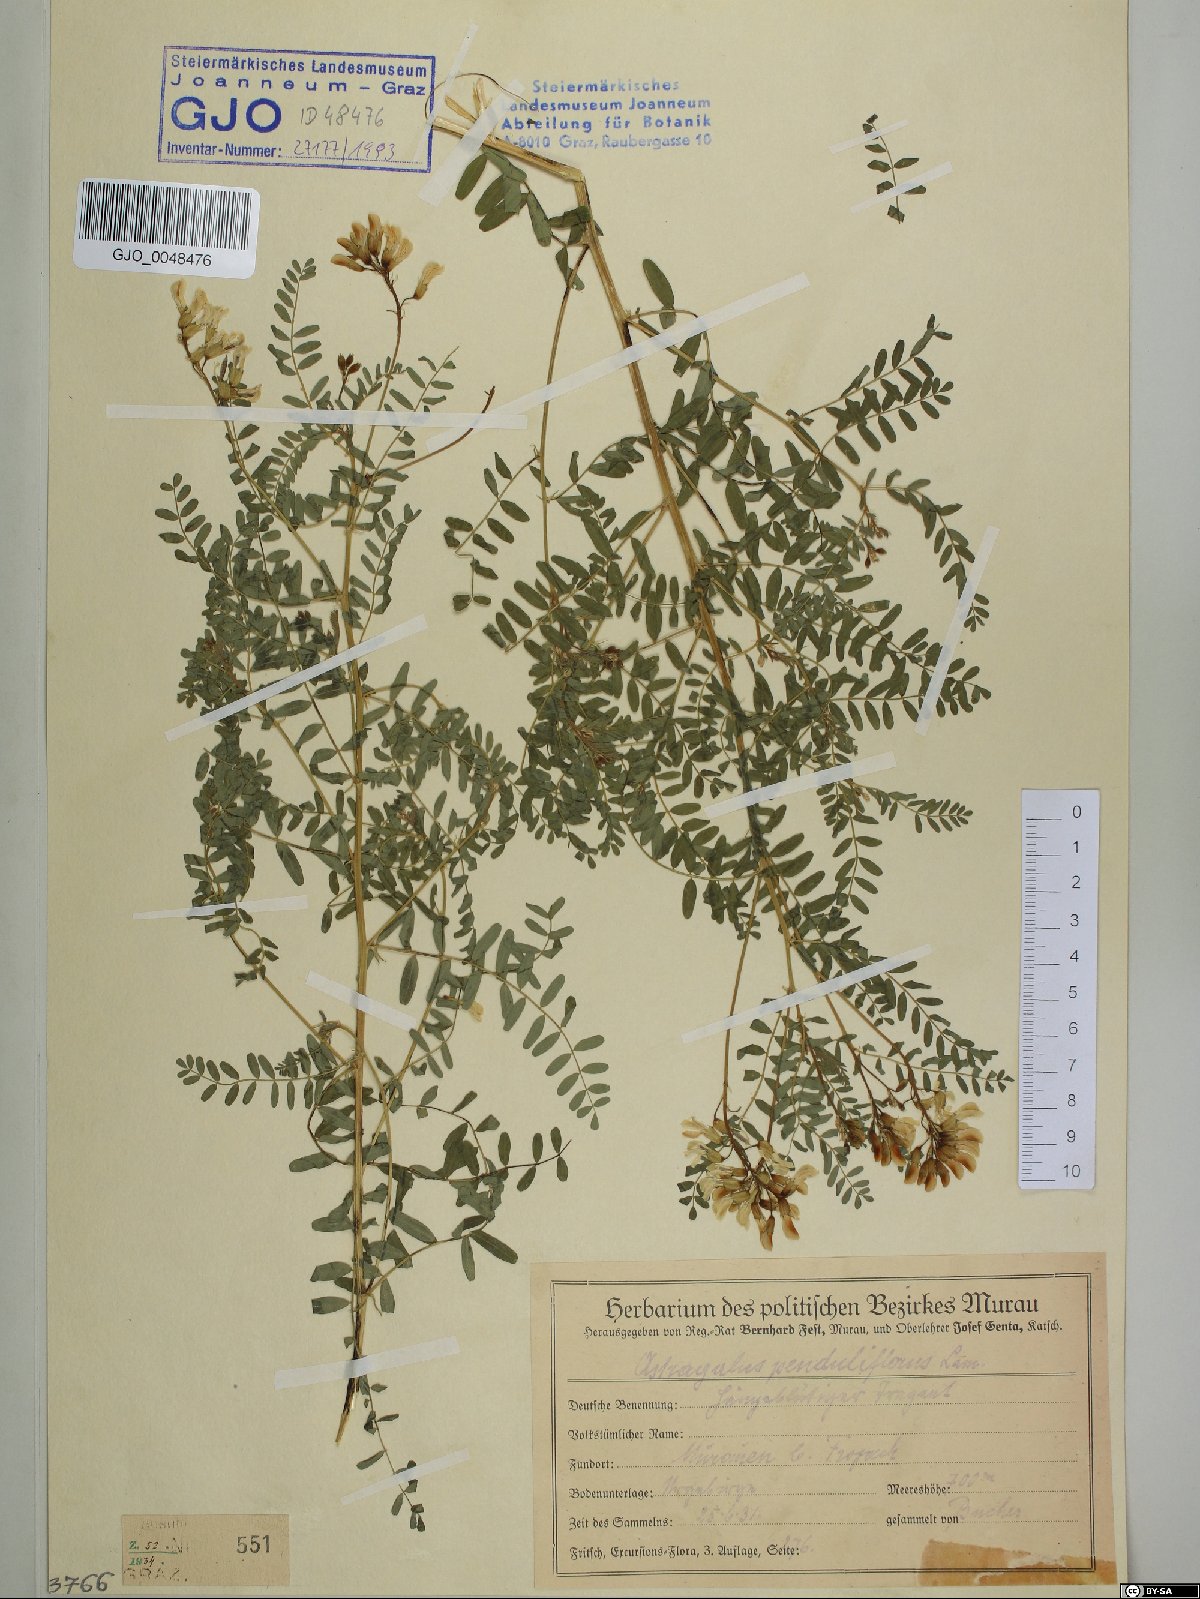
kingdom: Plantae
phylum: Tracheophyta
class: Magnoliopsida
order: Fabales
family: Fabaceae
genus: Astragalus
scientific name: Astragalus penduliflorus
